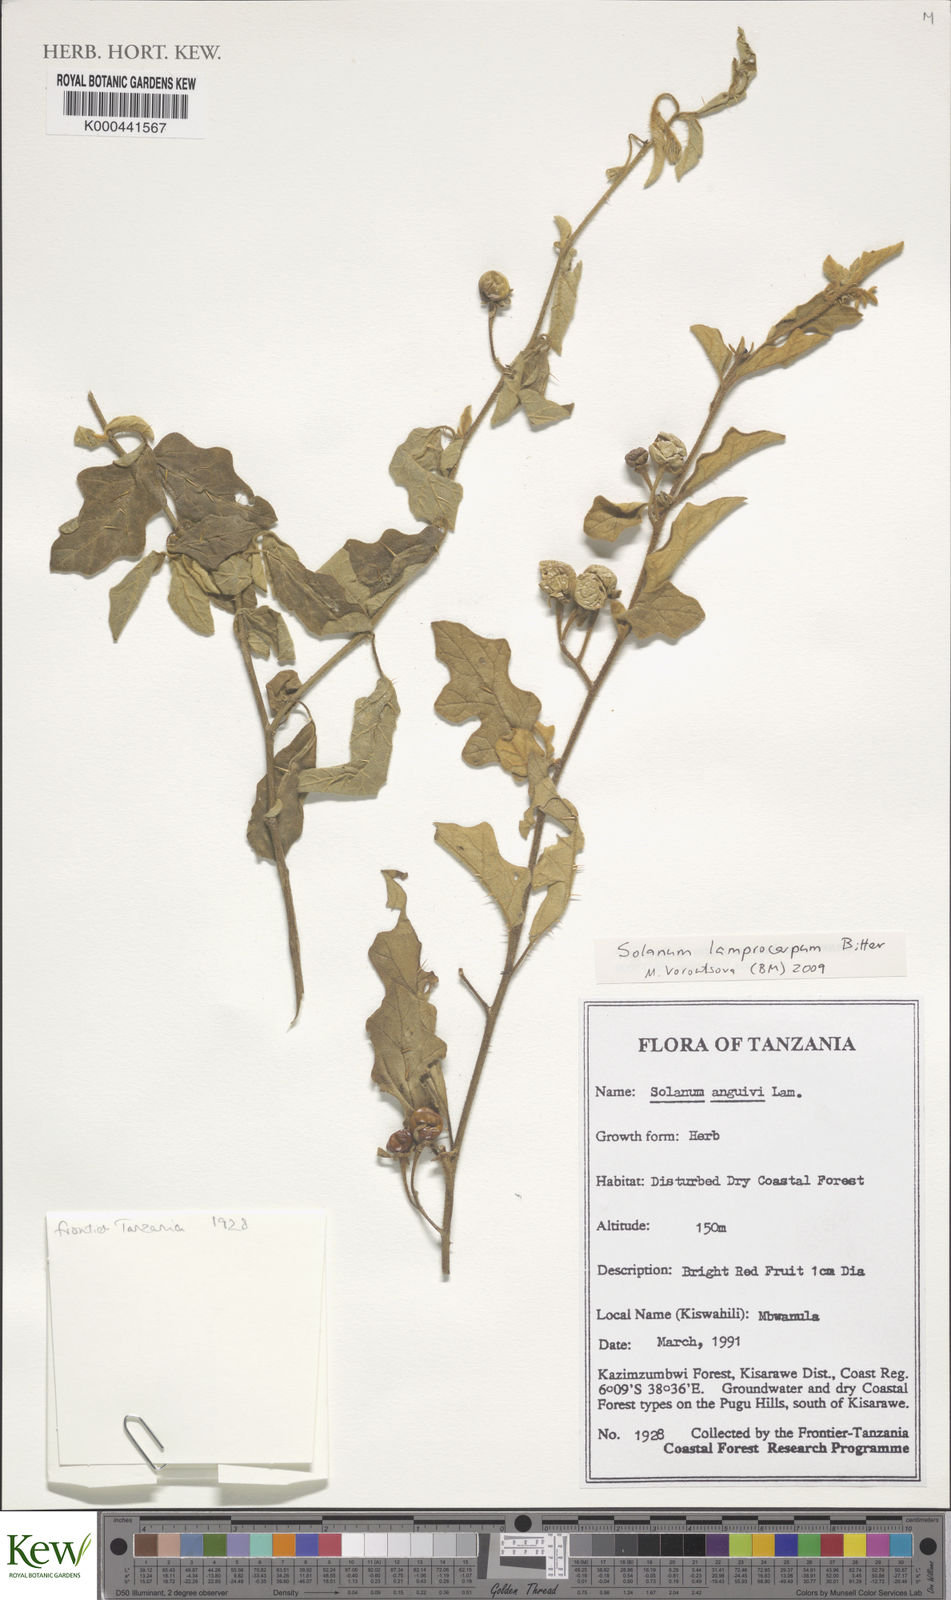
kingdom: Plantae
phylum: Tracheophyta
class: Magnoliopsida
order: Solanales
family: Solanaceae
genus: Solanum
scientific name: Solanum lamprocarpum
